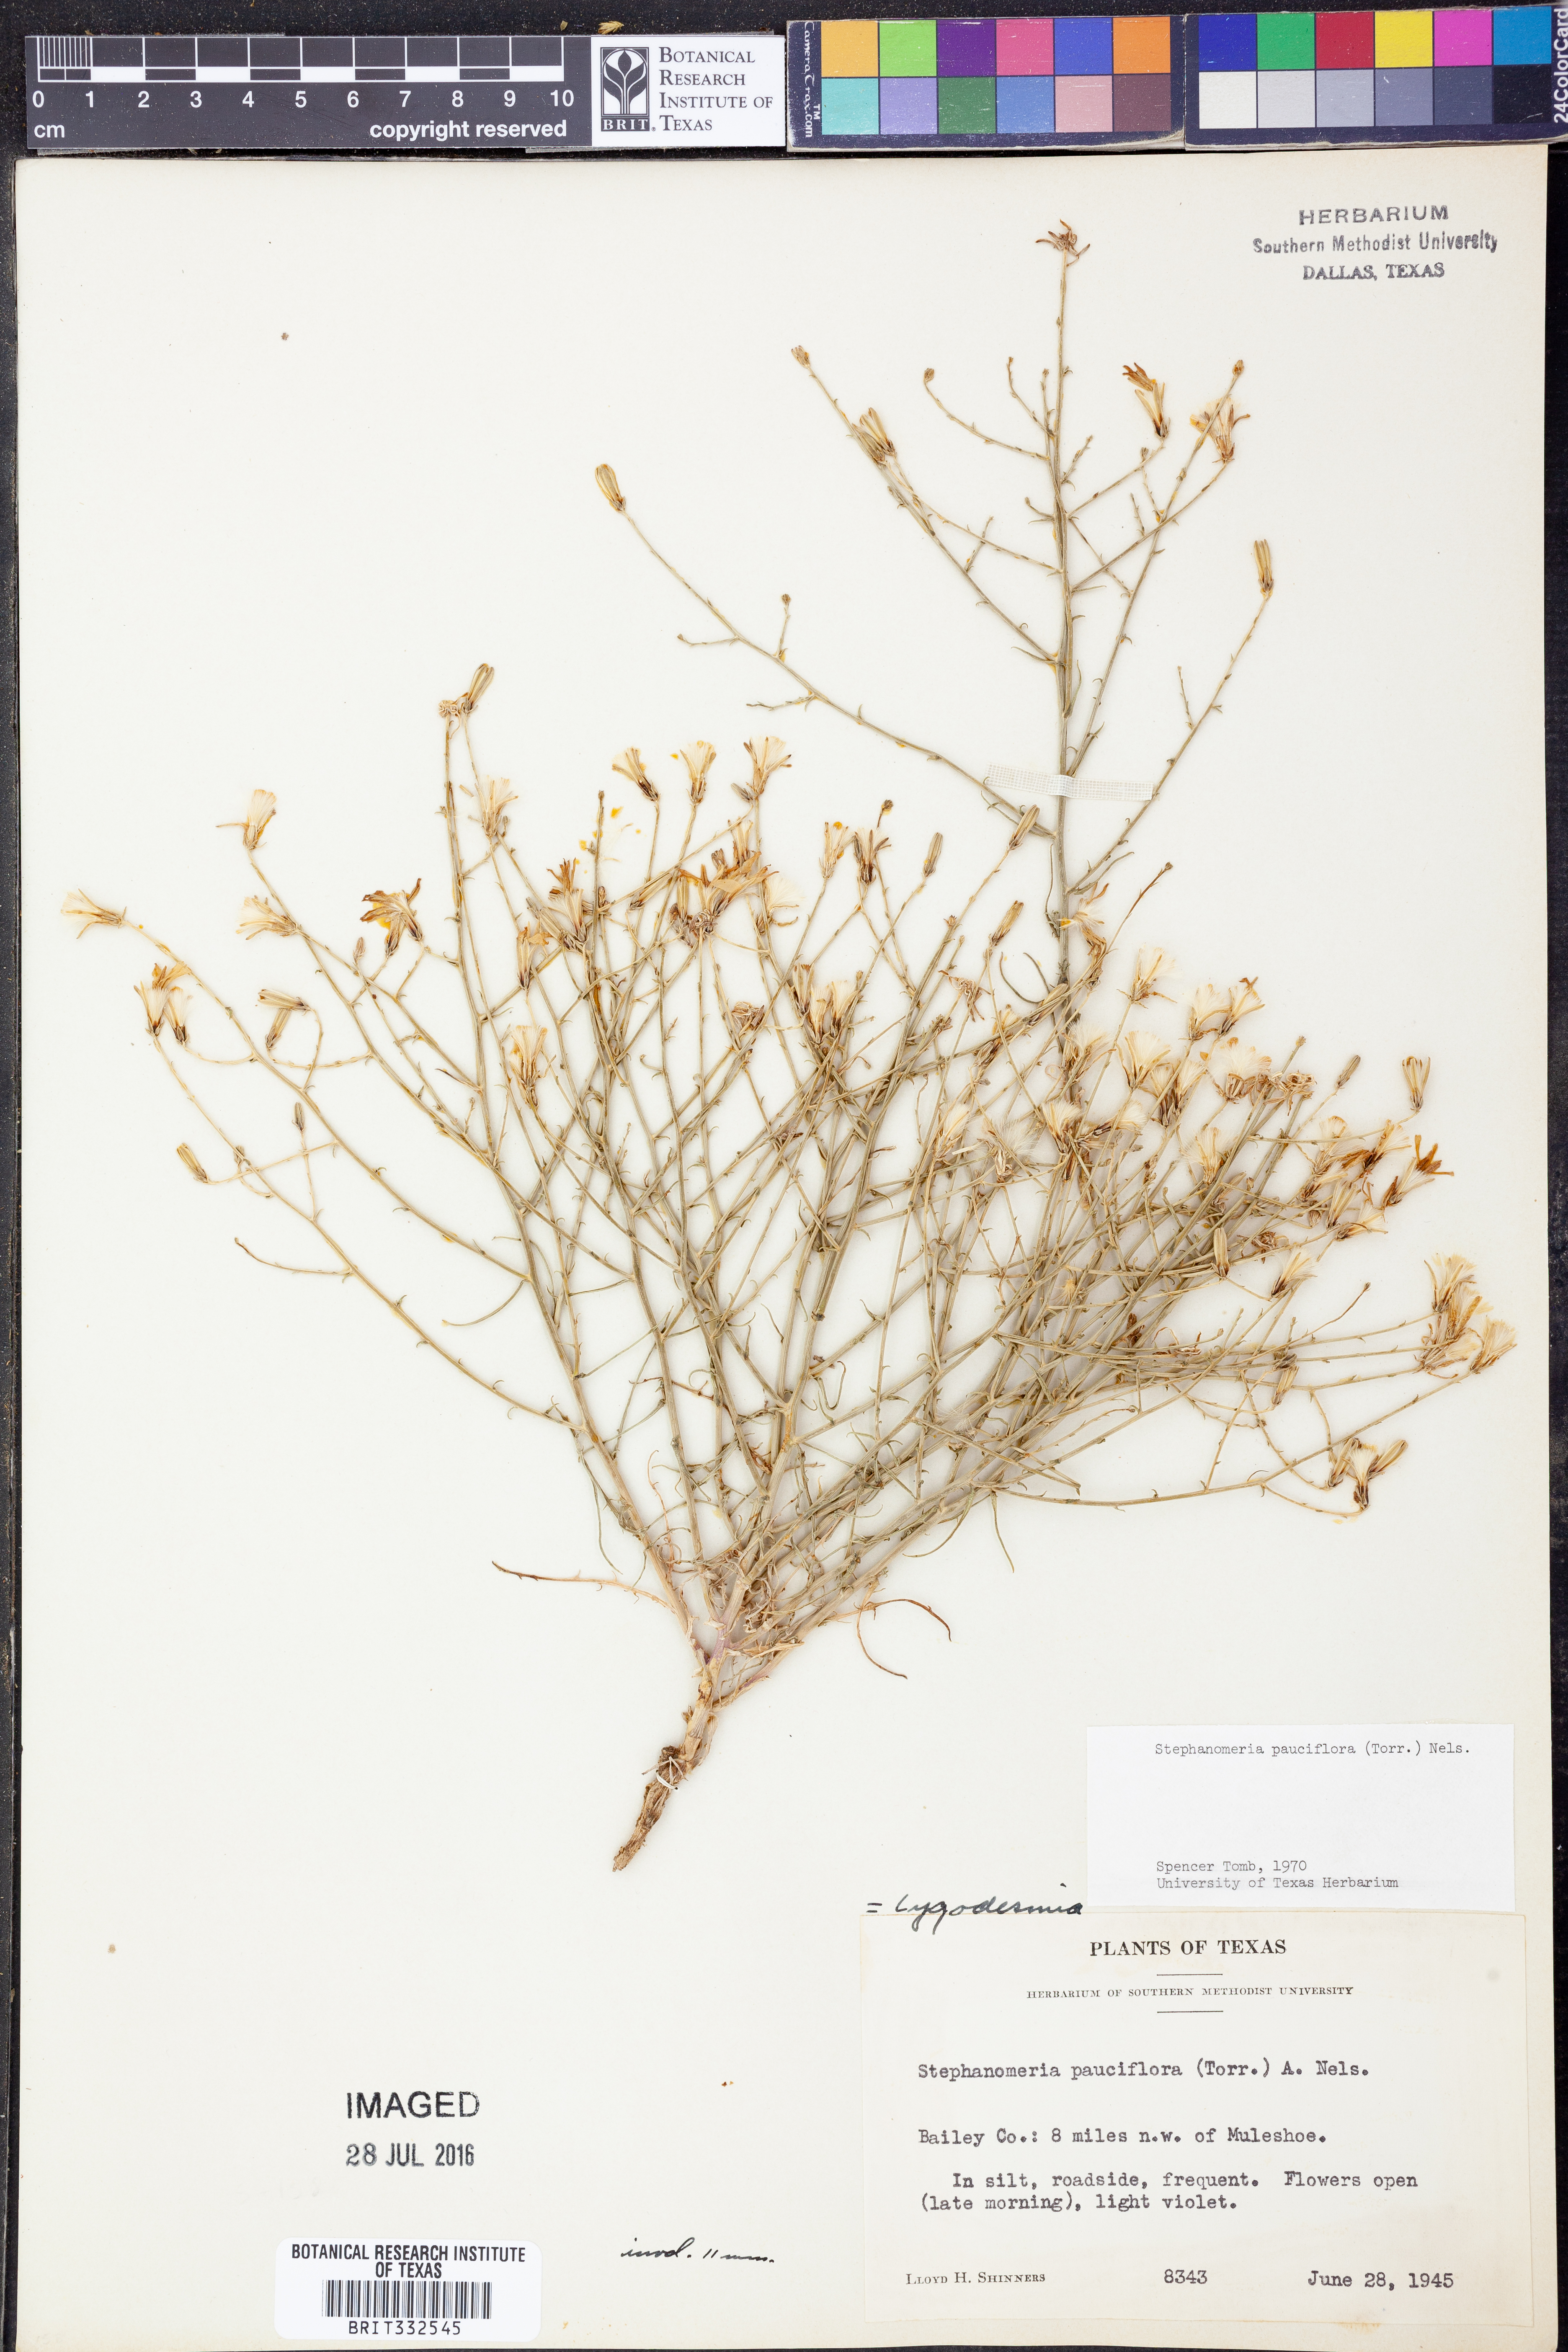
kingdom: Plantae
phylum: Tracheophyta
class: Magnoliopsida
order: Asterales
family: Asteraceae
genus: Stephanomeria
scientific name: Stephanomeria pauciflora
